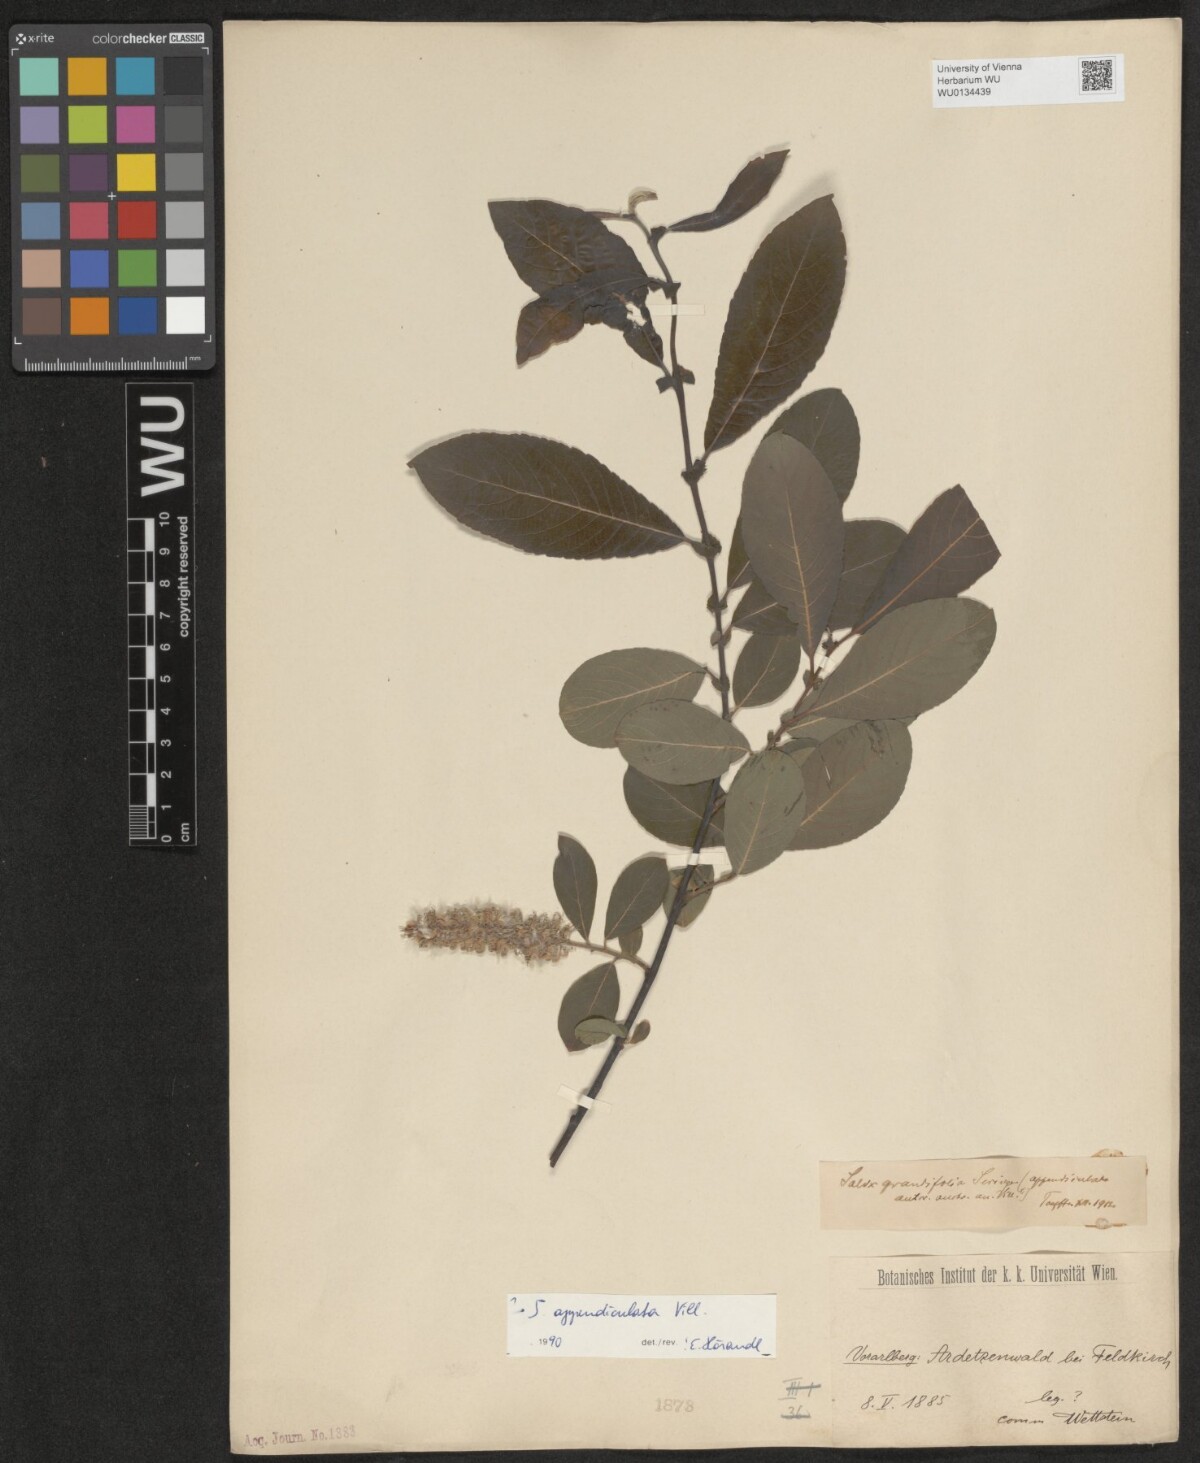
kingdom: Plantae
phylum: Tracheophyta
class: Magnoliopsida
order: Malpighiales
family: Salicaceae
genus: Salix
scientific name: Salix appendiculata
